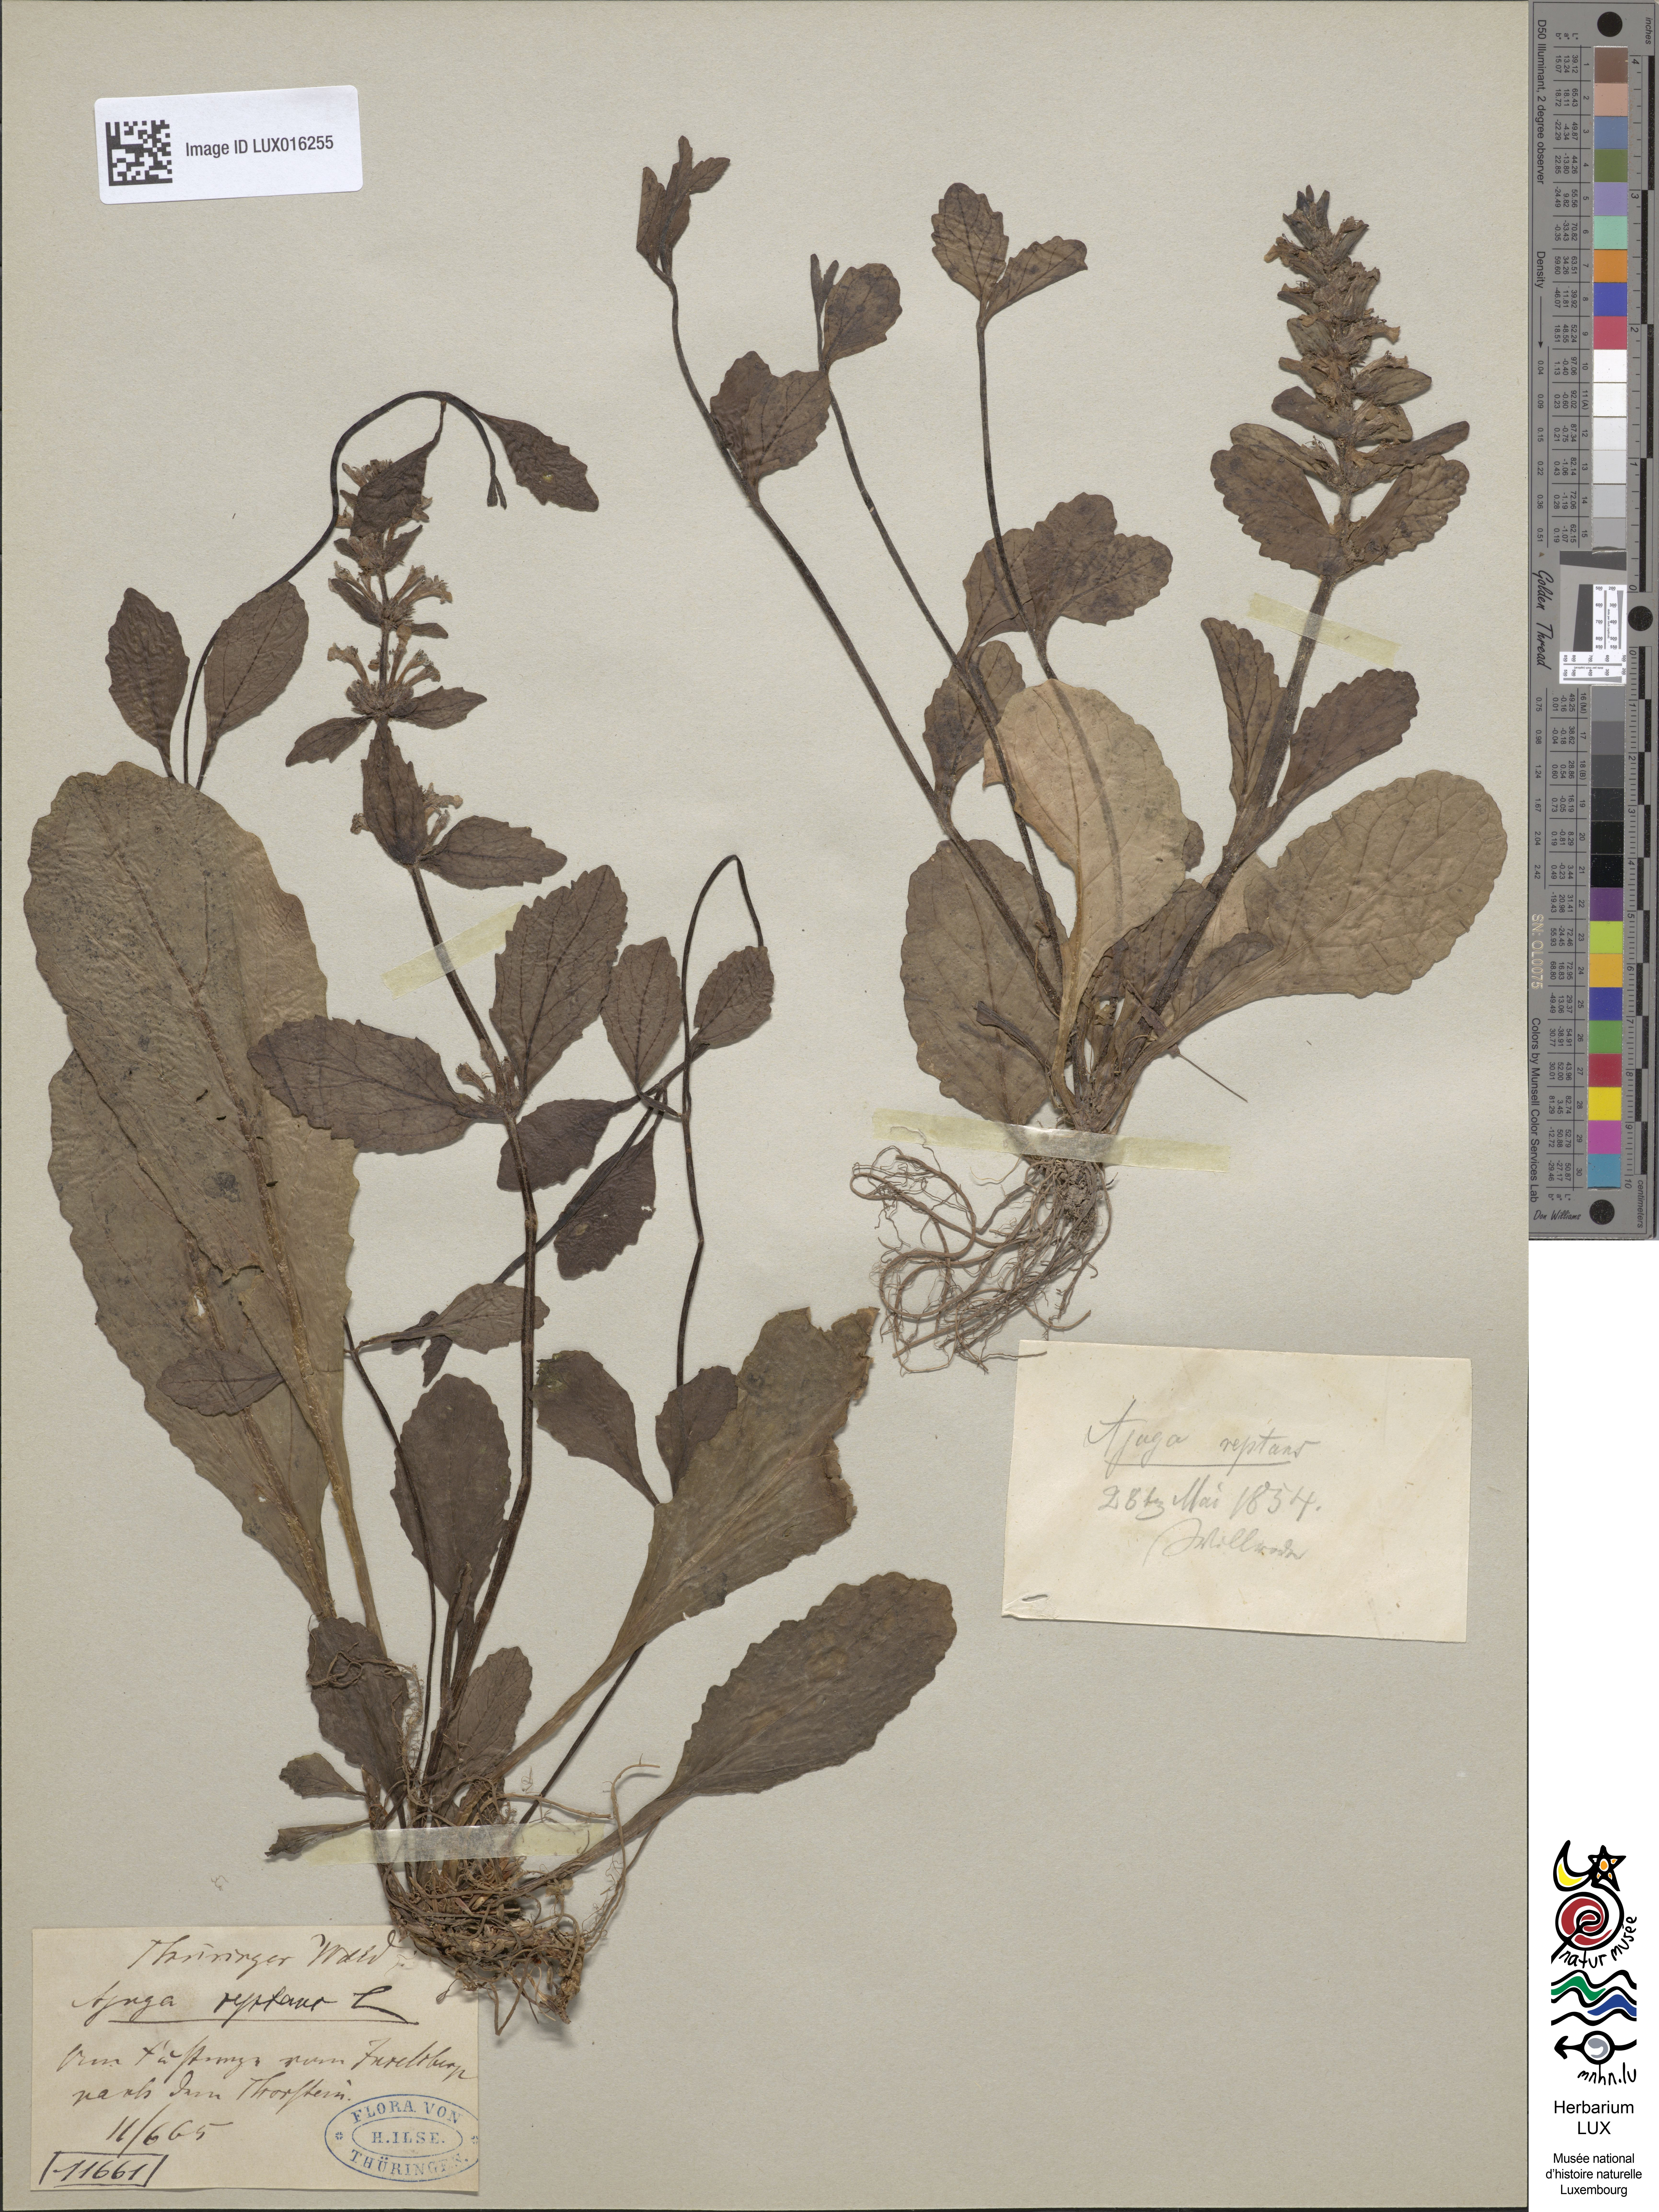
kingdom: Plantae
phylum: Tracheophyta
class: Magnoliopsida
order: Lamiales
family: Lamiaceae
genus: Ajuga
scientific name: Ajuga reptans
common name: Bugle
